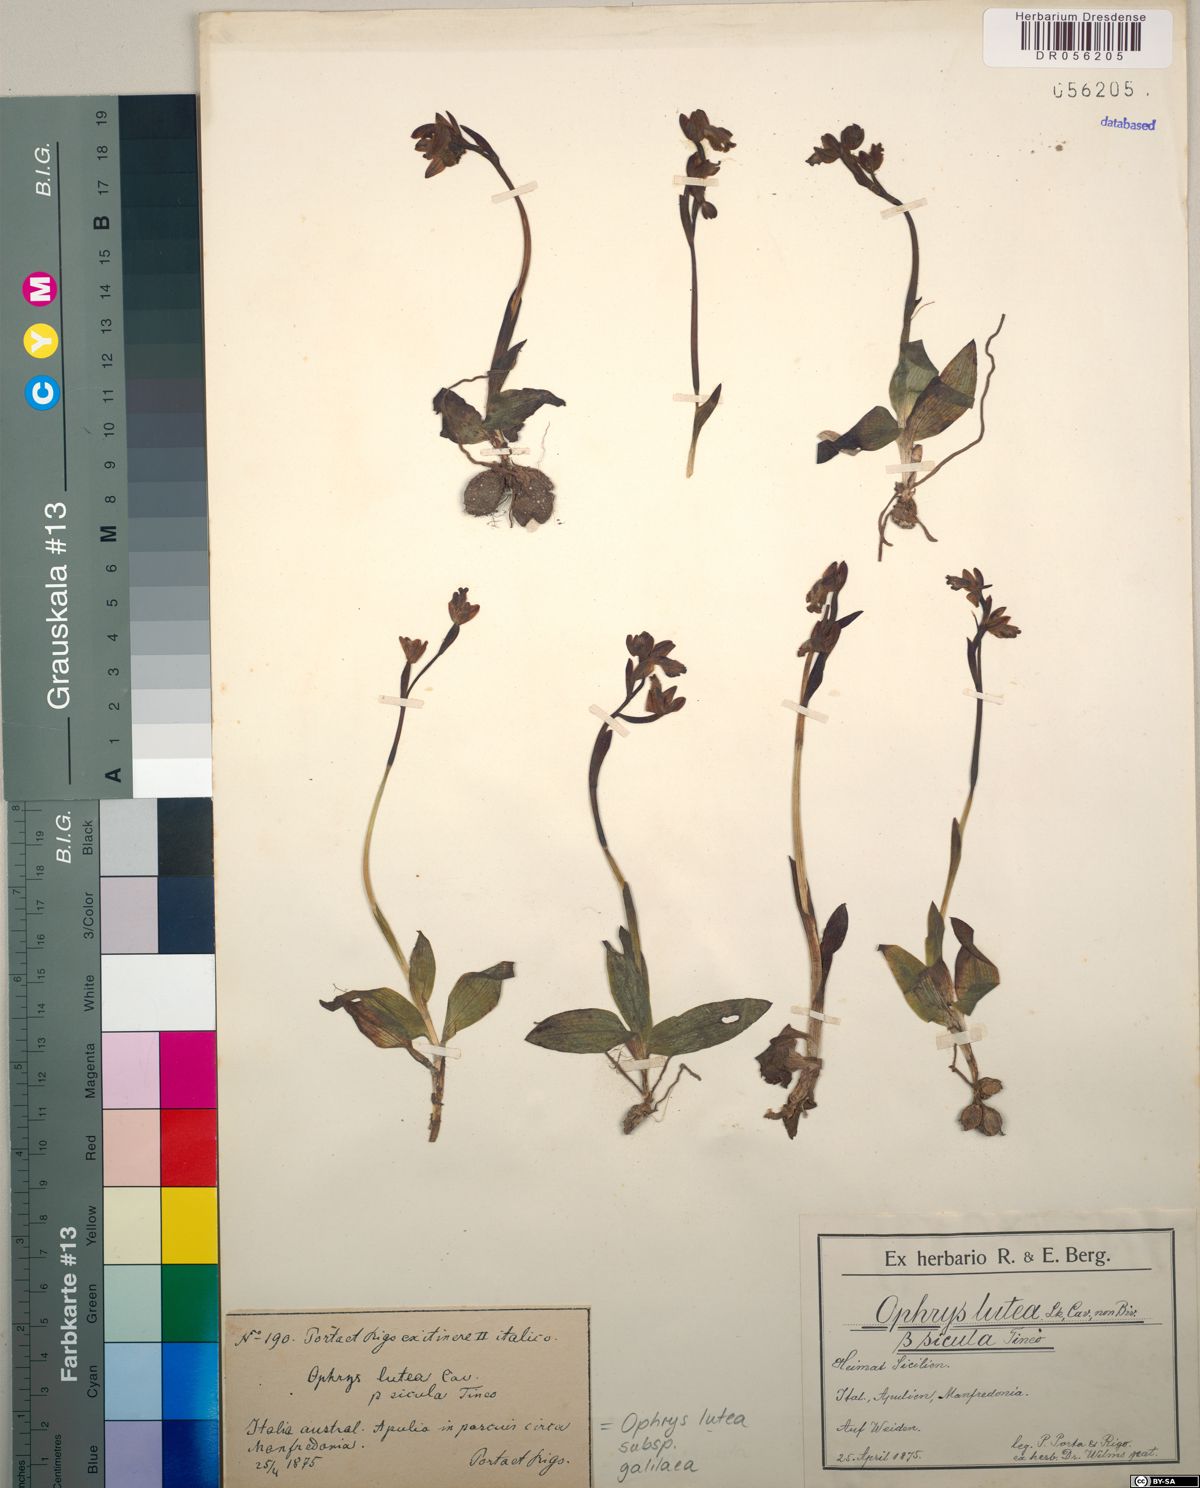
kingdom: Plantae
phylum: Tracheophyta
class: Liliopsida
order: Asparagales
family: Orchidaceae
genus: Ophrys
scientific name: Ophrys lutea
